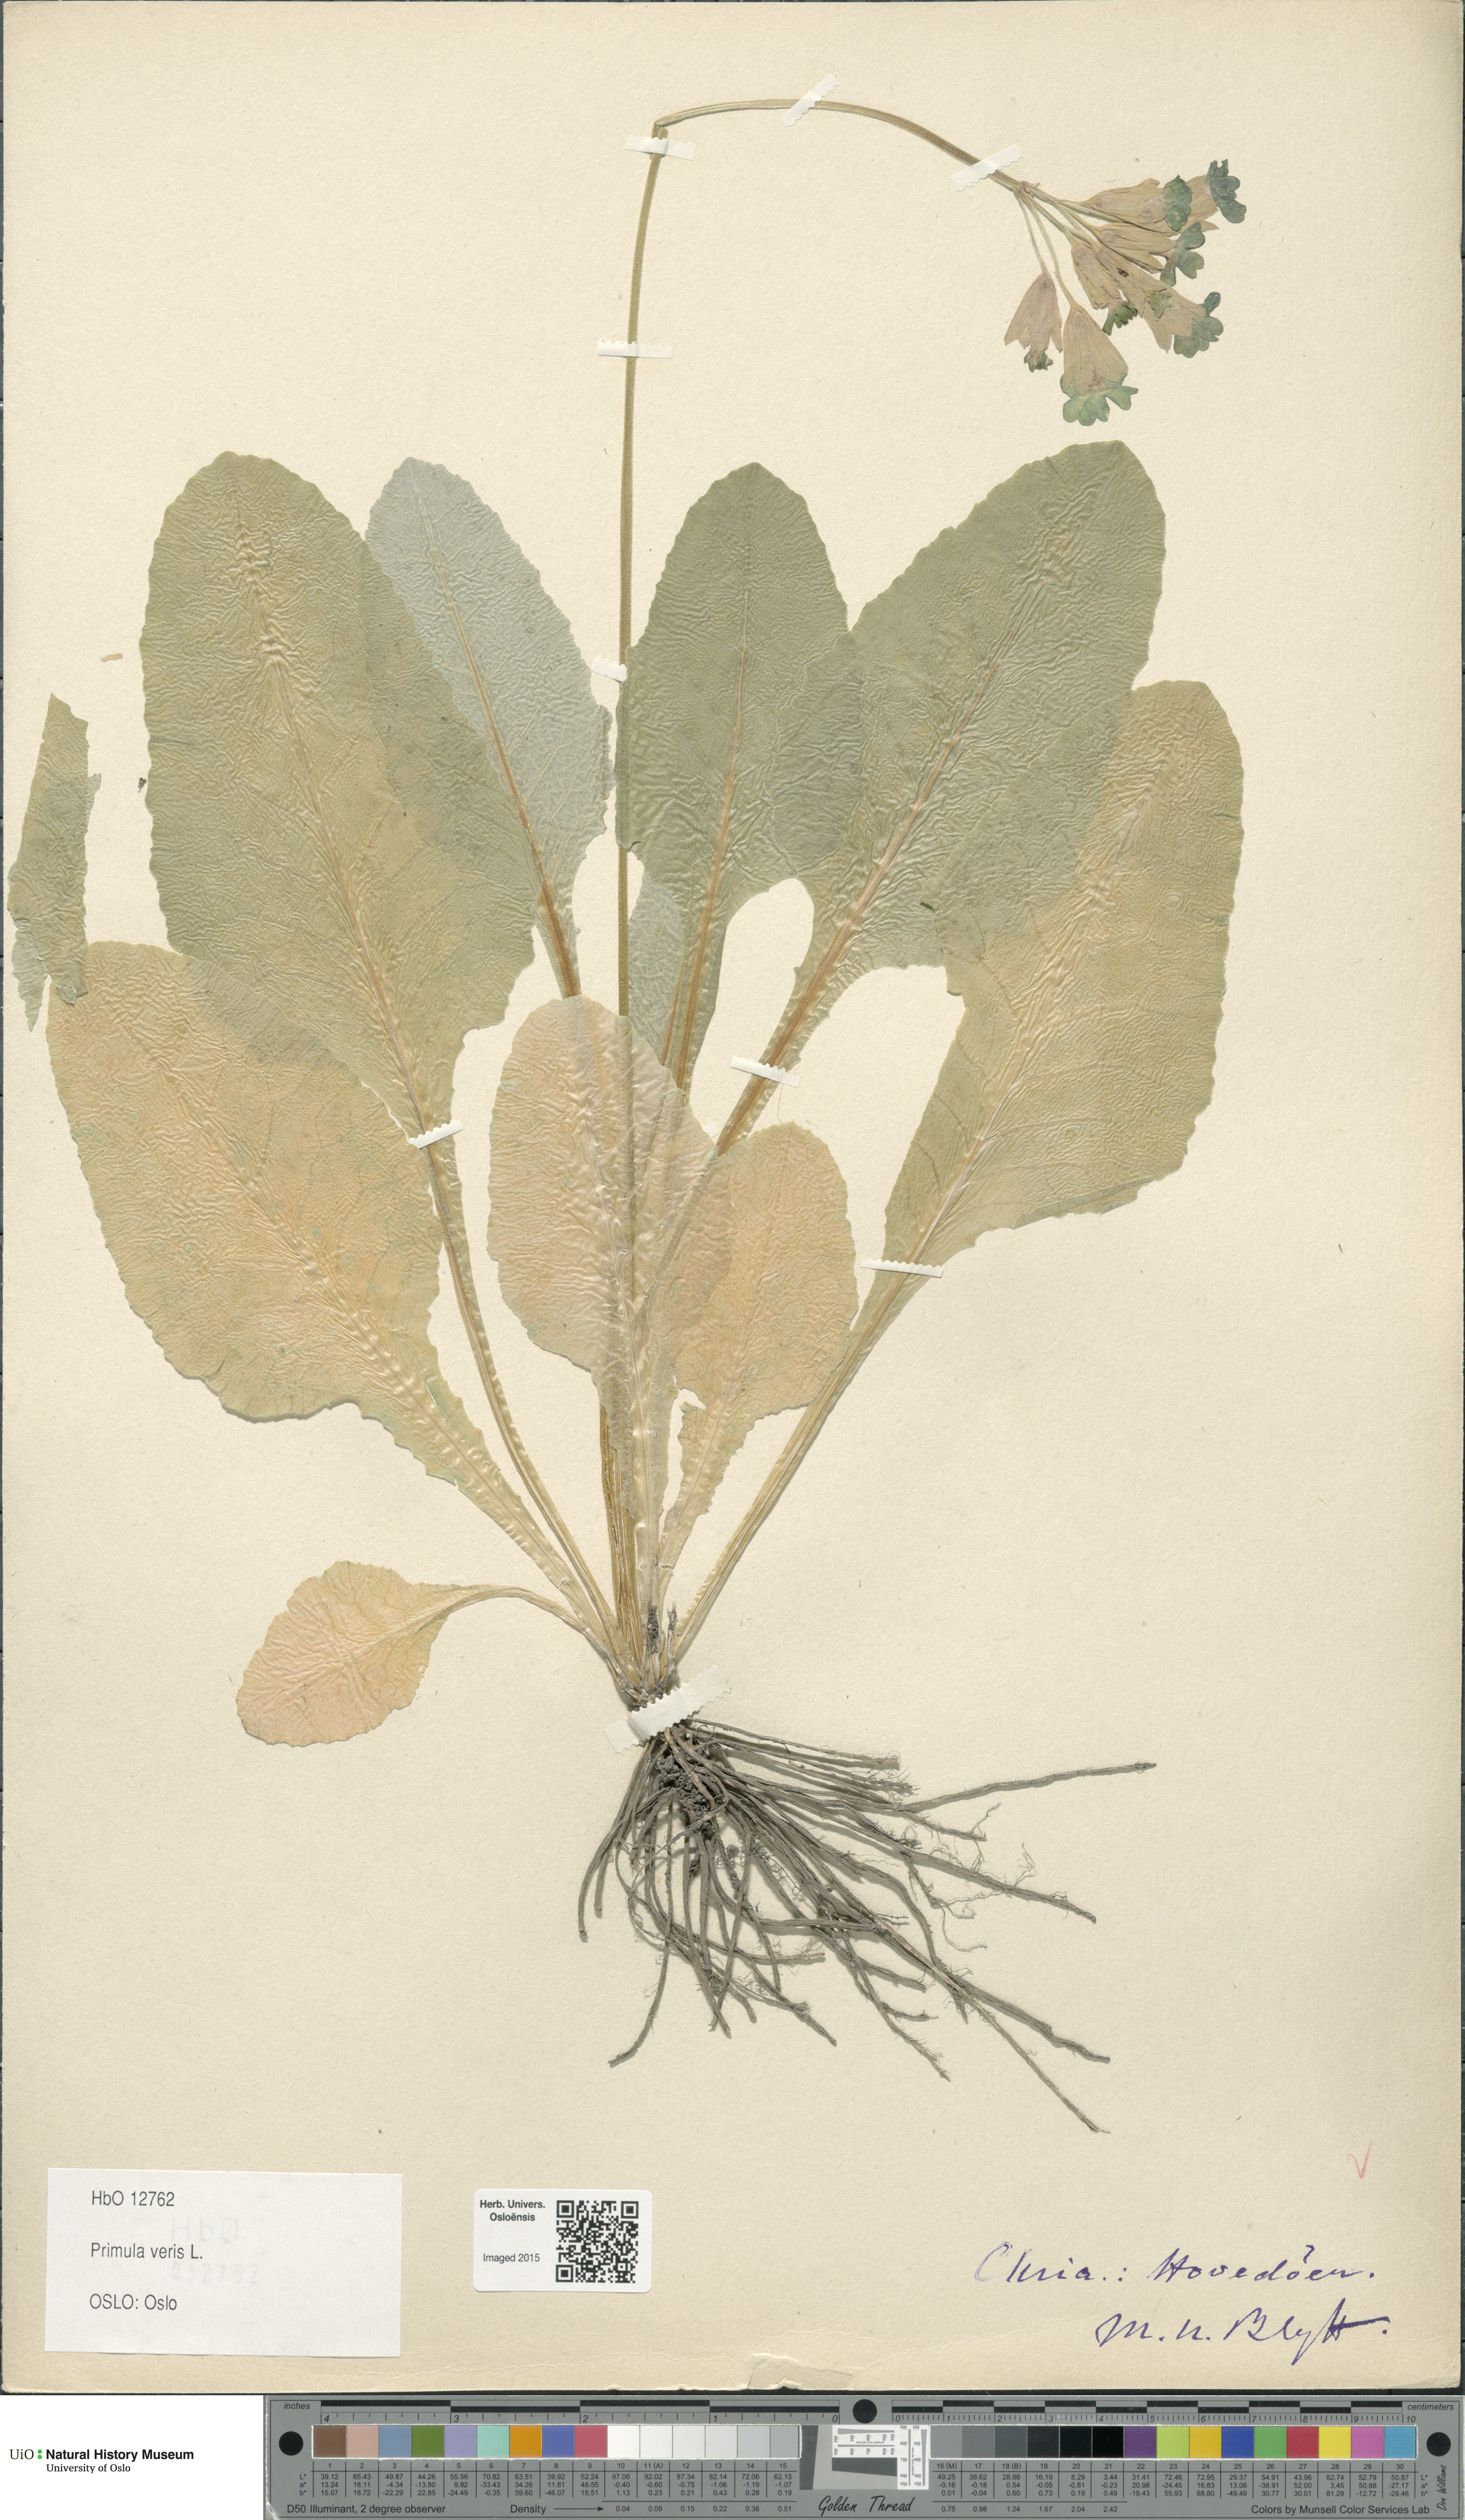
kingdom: Plantae
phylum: Tracheophyta
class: Magnoliopsida
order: Ericales
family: Primulaceae
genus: Primula
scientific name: Primula veris
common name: Cowslip
